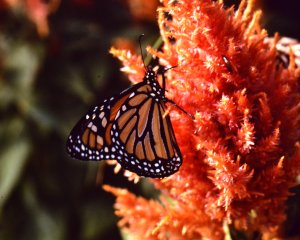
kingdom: Animalia
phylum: Arthropoda
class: Insecta
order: Lepidoptera
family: Nymphalidae
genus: Danaus
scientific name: Danaus plexippus
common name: Monarch
